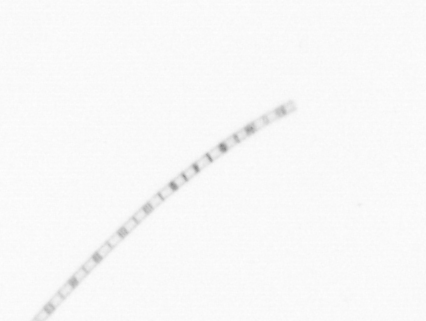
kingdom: Chromista
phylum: Ochrophyta
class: Bacillariophyceae
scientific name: Bacillariophyceae
